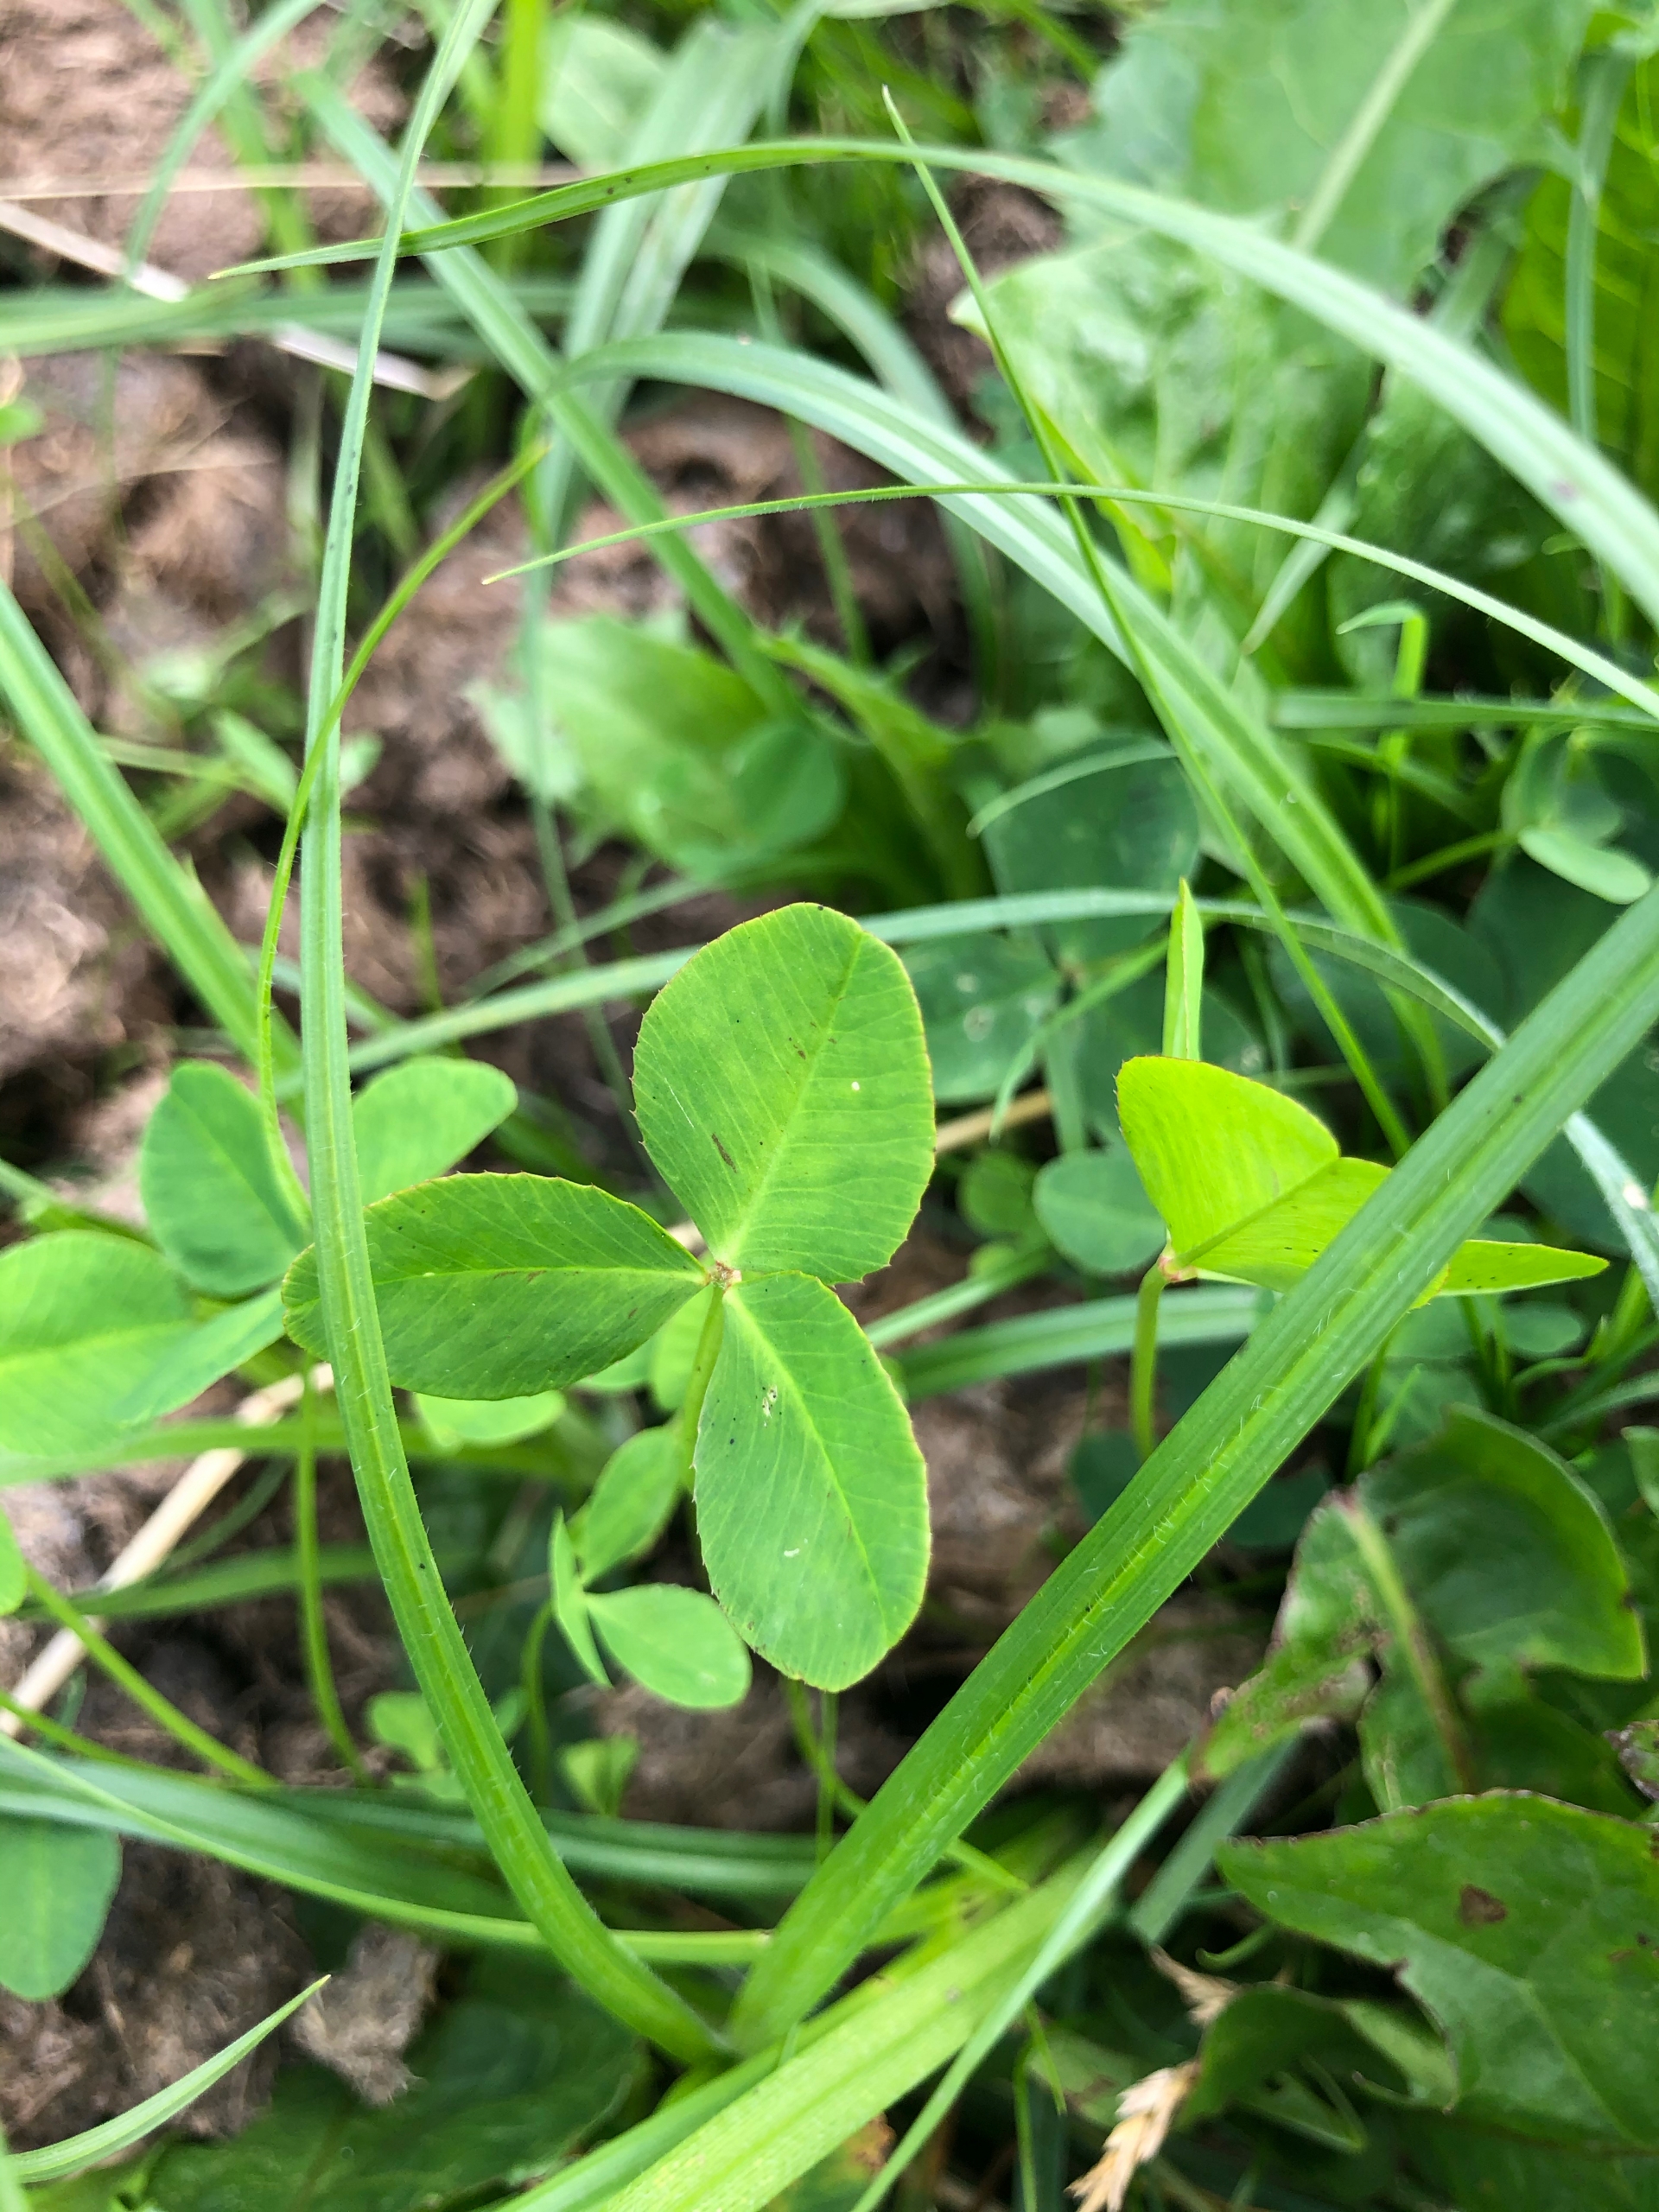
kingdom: Plantae
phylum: Tracheophyta
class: Magnoliopsida
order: Fabales
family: Fabaceae
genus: Trifolium
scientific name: Trifolium repens
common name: Hvid-kløver
